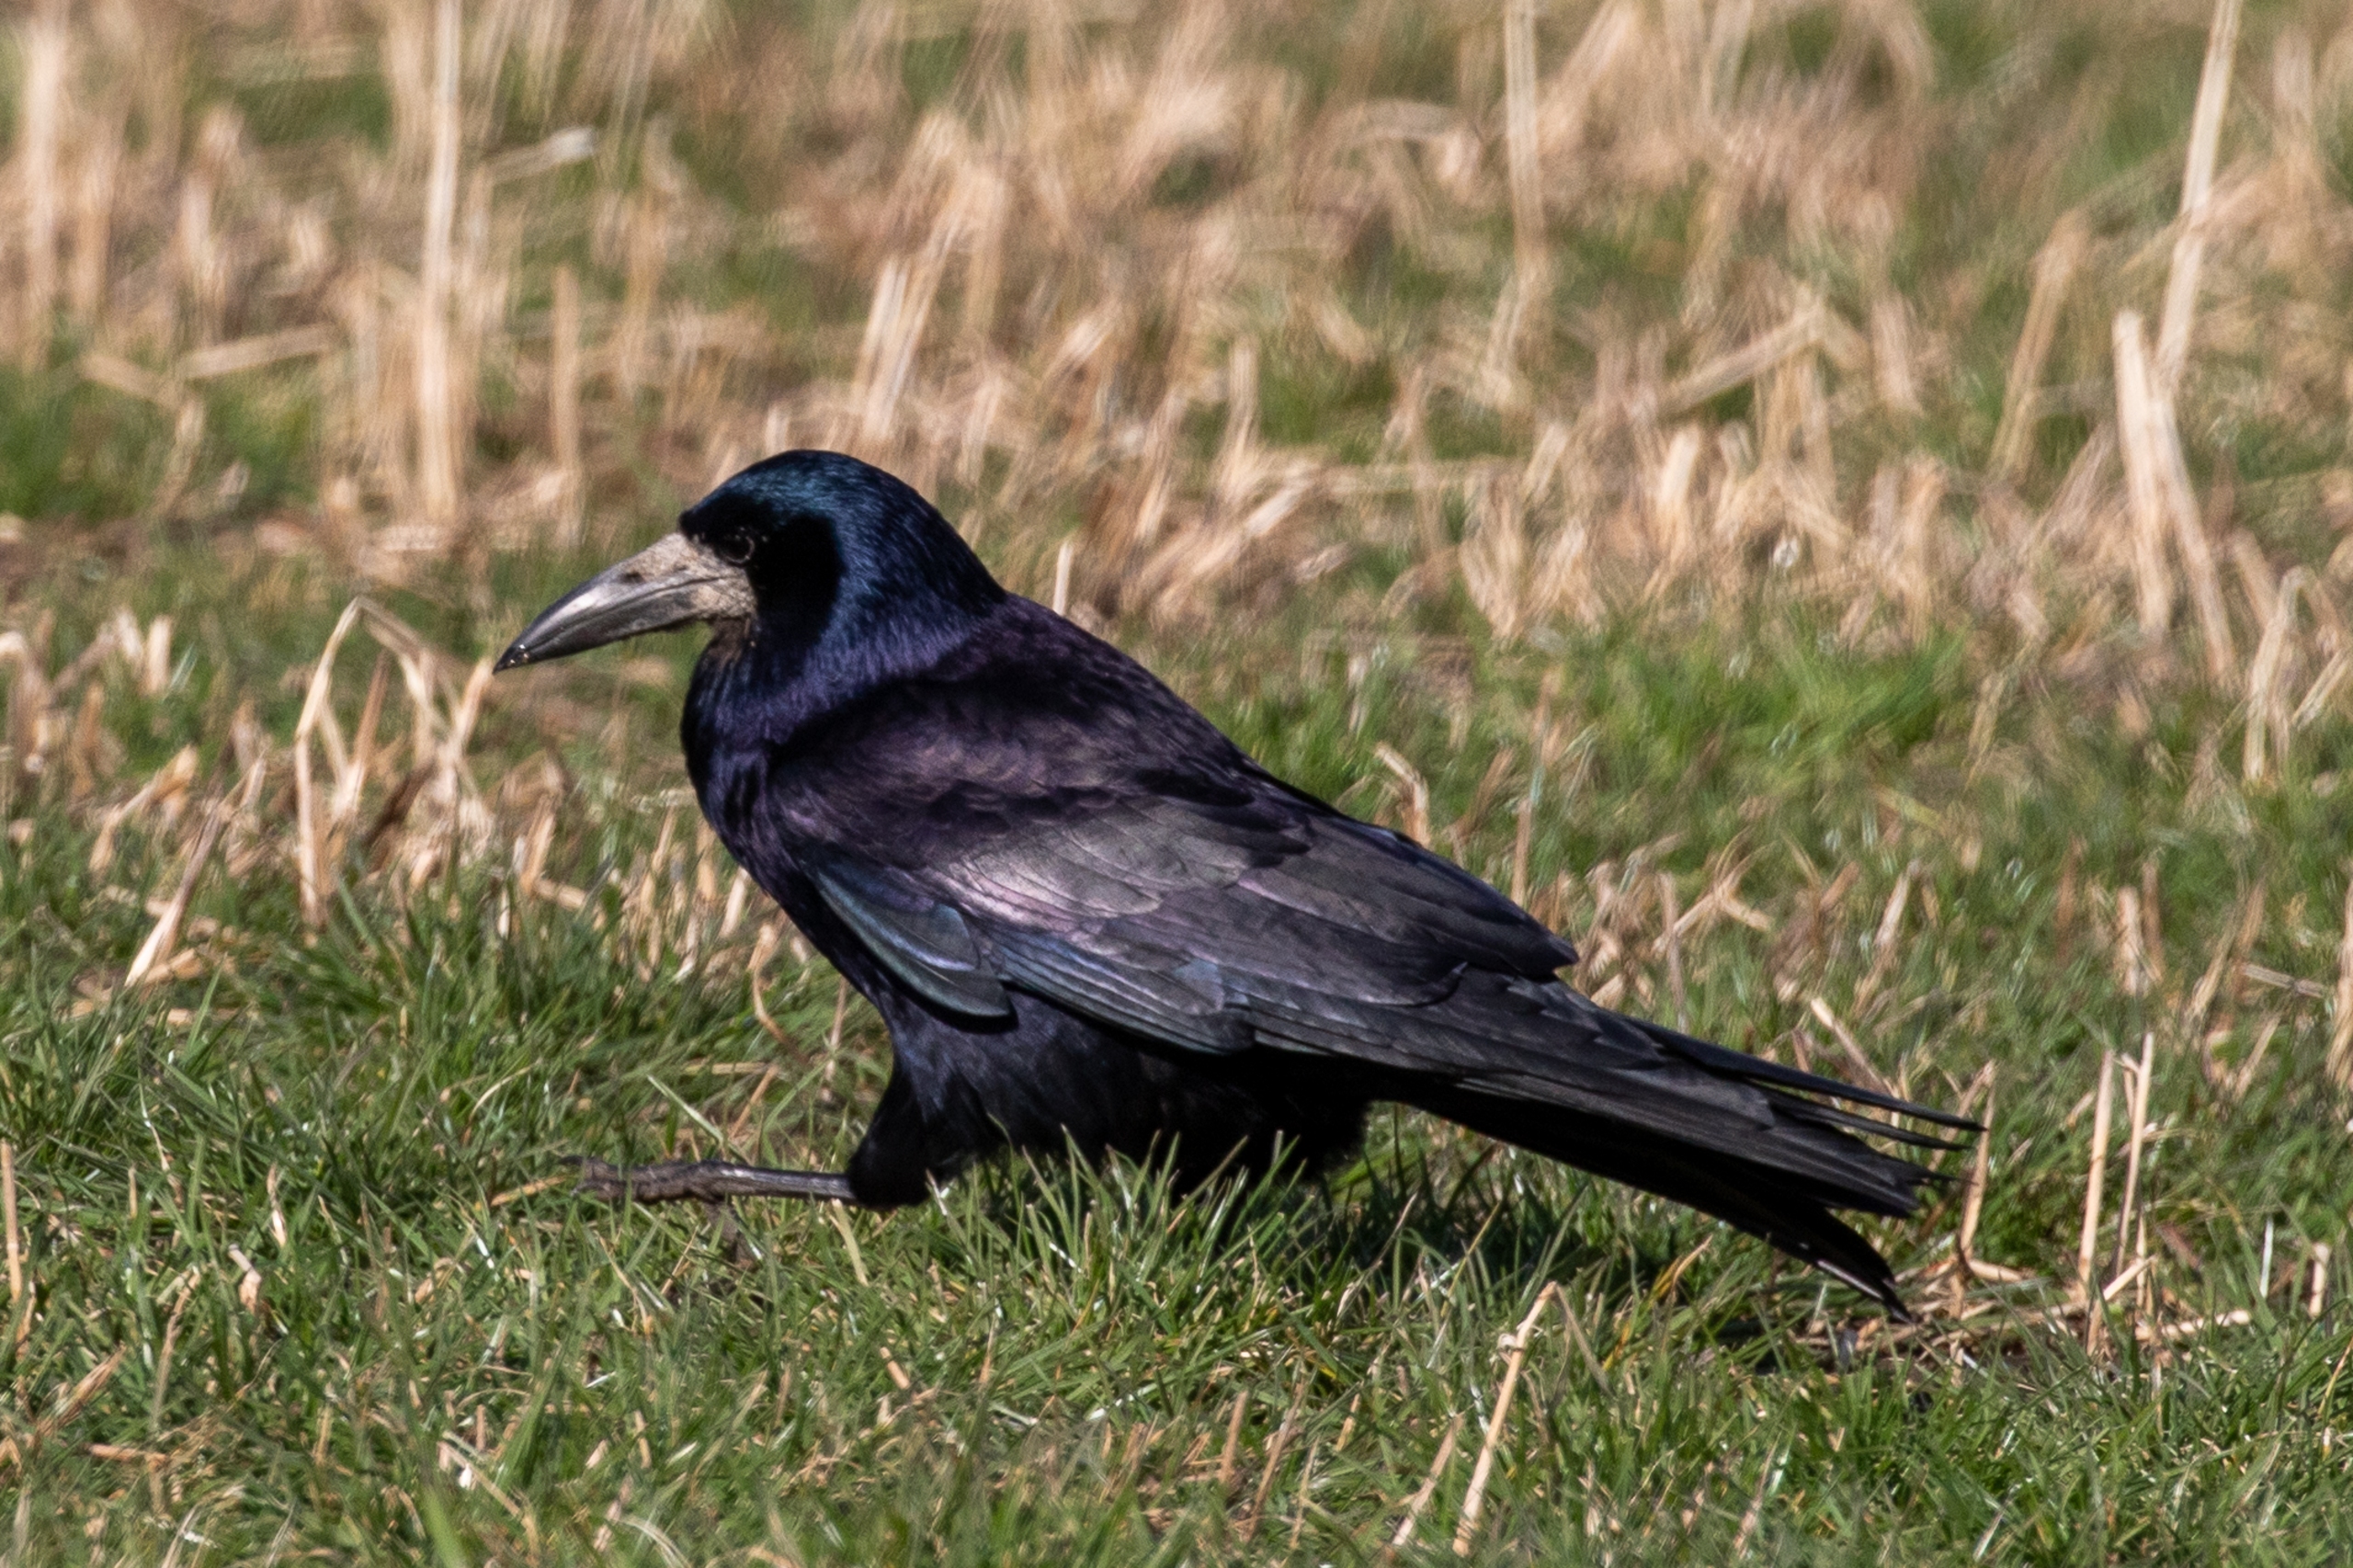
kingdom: Animalia
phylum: Chordata
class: Aves
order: Passeriformes
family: Corvidae
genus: Corvus
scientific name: Corvus frugilegus
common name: Råge
